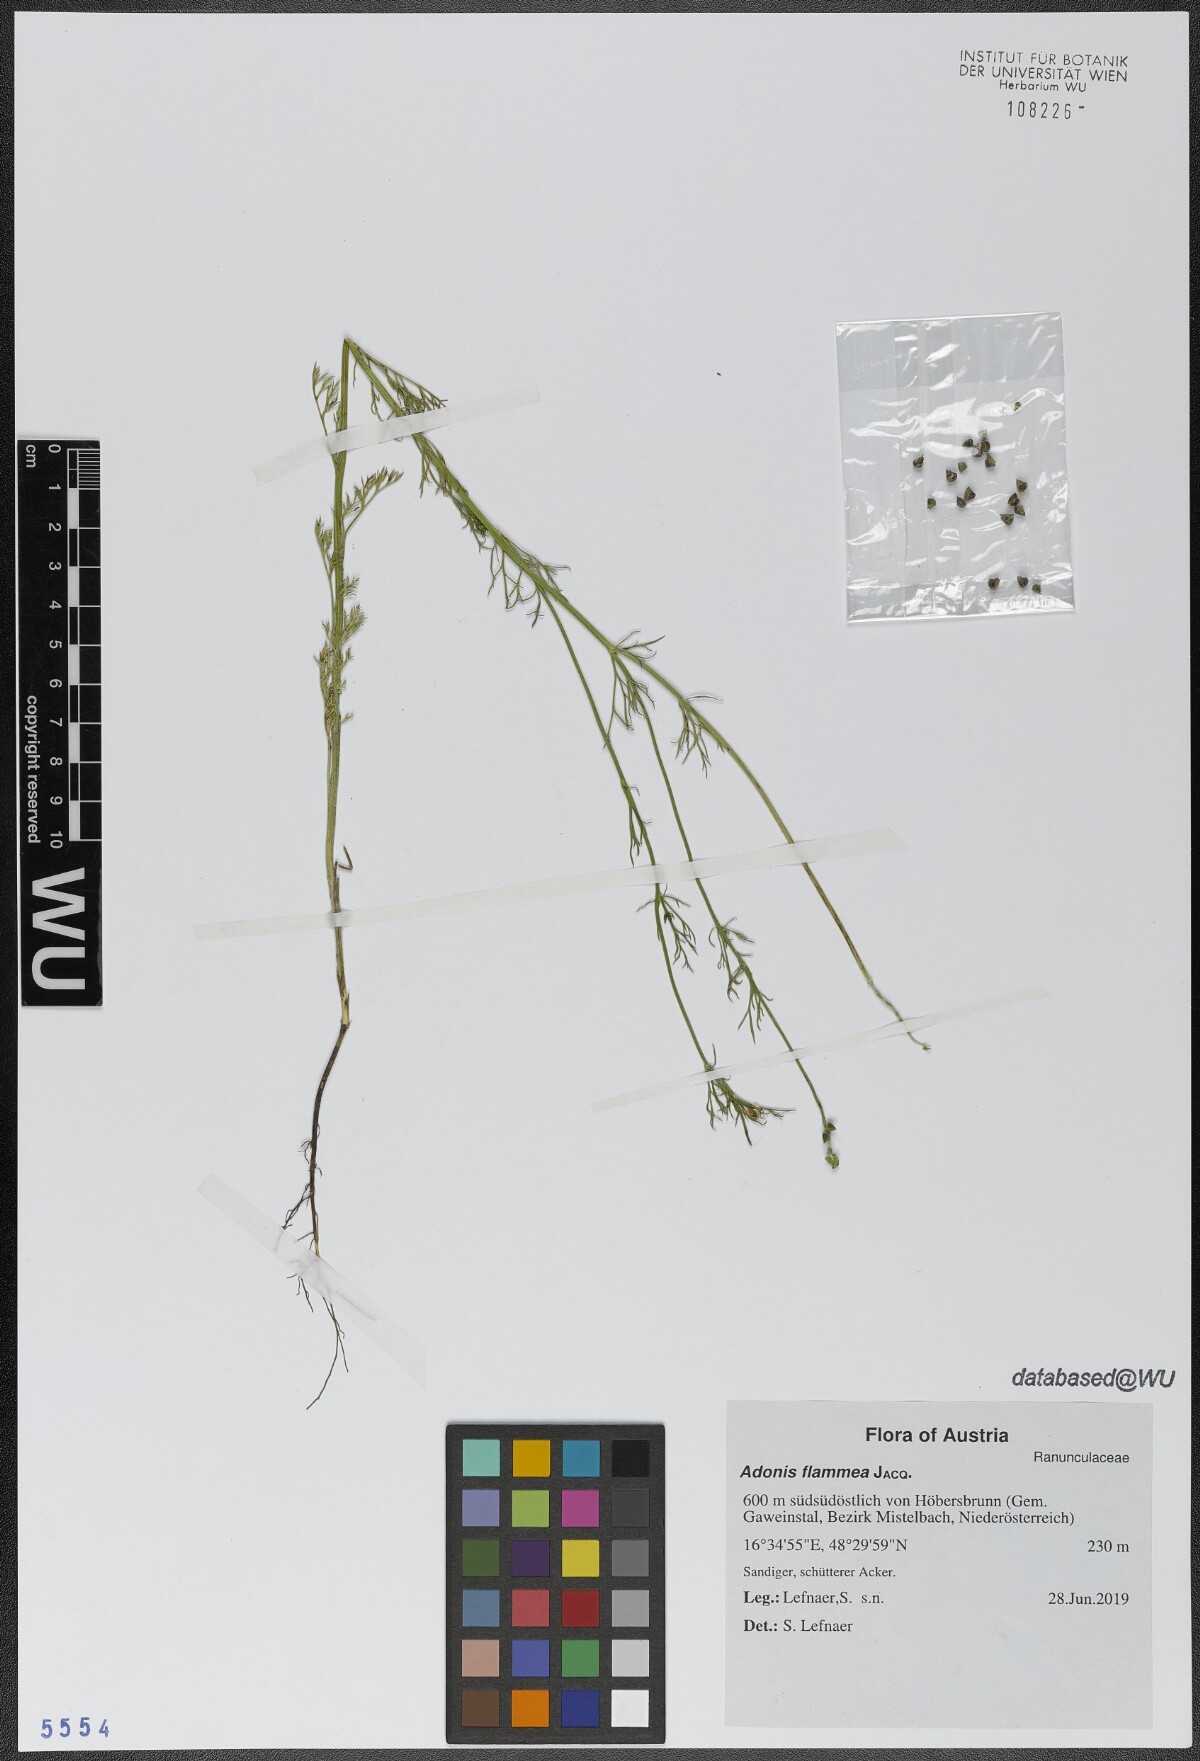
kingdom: Plantae
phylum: Tracheophyta
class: Magnoliopsida
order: Ranunculales
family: Ranunculaceae
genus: Adonis
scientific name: Adonis flammea
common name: Large pheasant's-eye
